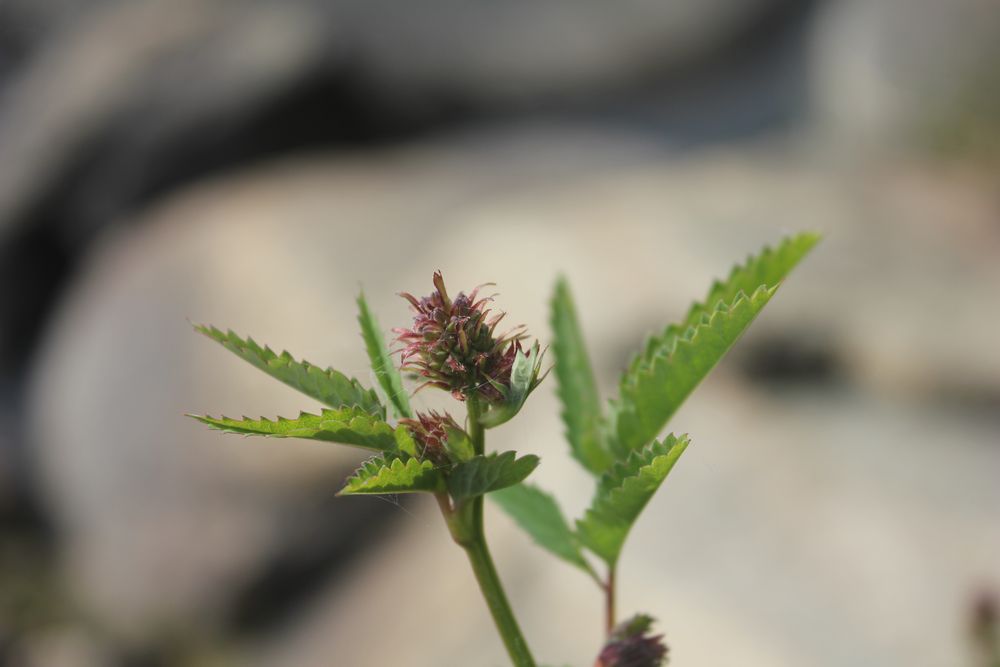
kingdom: Plantae
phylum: Tracheophyta
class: Magnoliopsida
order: Rosales
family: Rosaceae
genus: Sanguisorba
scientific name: Sanguisorba
